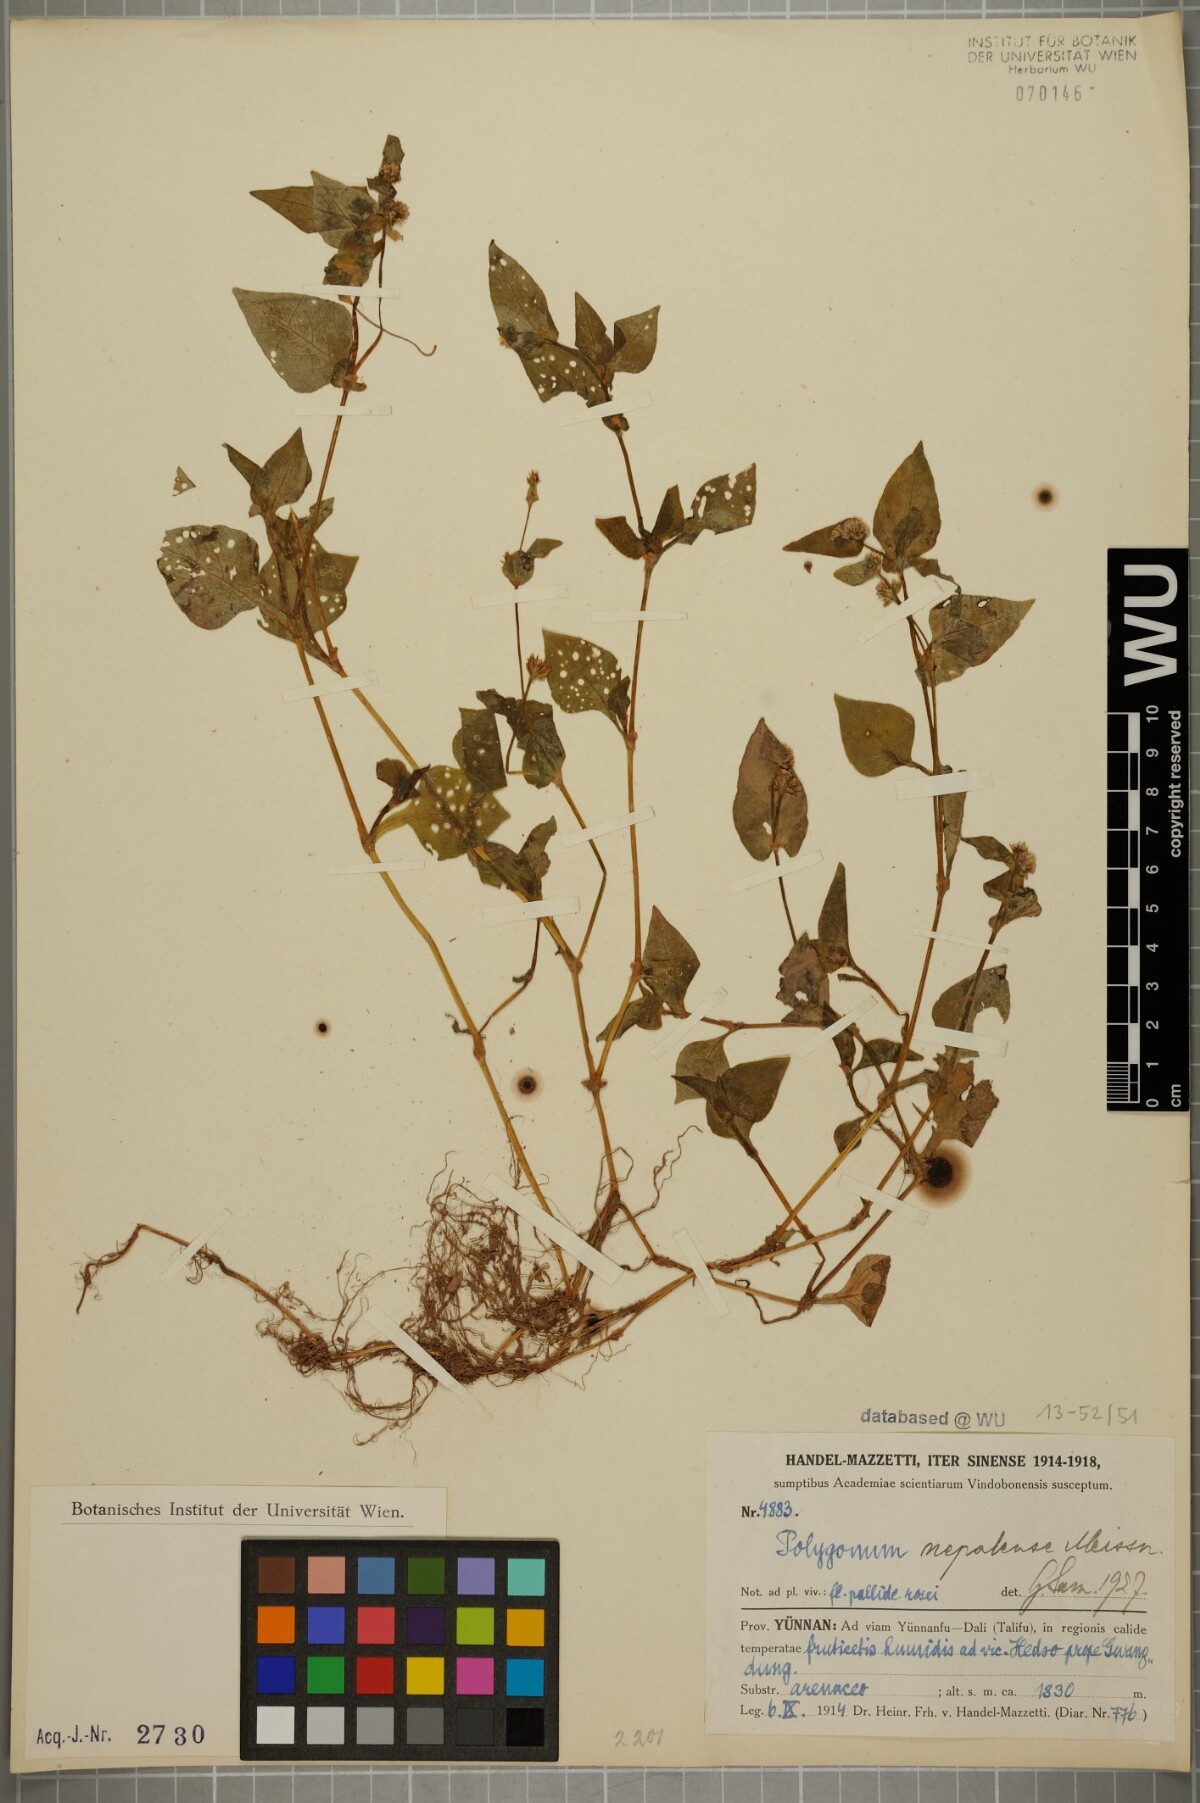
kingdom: Plantae
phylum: Tracheophyta
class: Magnoliopsida
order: Caryophyllales
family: Polygonaceae
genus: Persicaria
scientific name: Persicaria nepalensis
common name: Nepal persicaria
